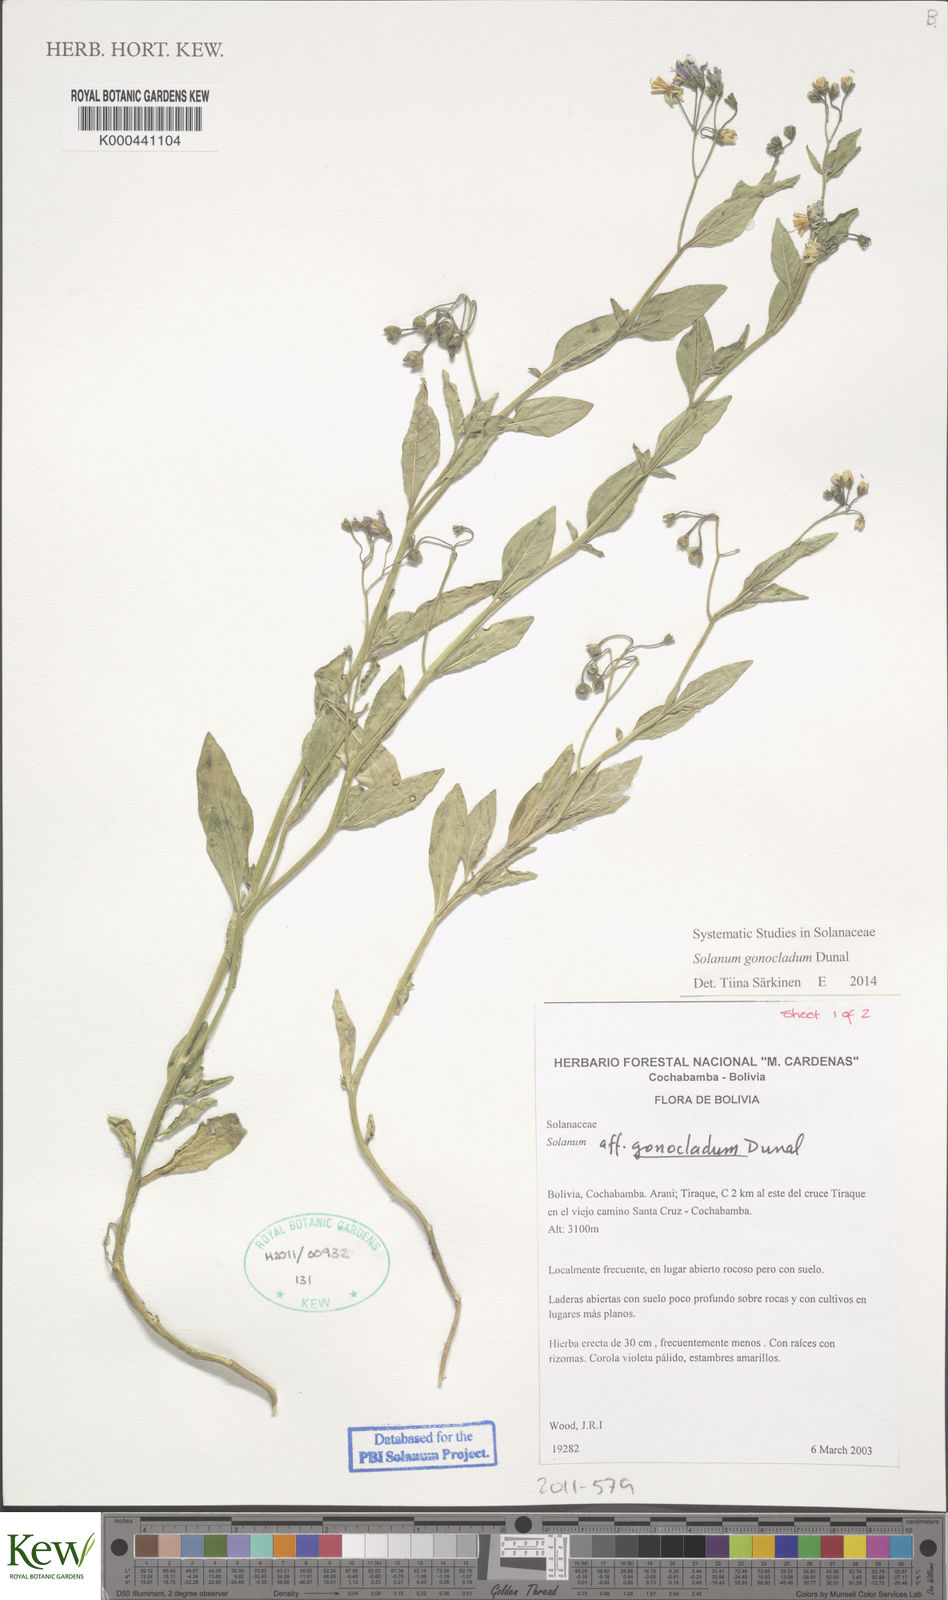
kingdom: Plantae
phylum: Tracheophyta
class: Magnoliopsida
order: Solanales
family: Solanaceae
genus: Solanum
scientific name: Solanum gonocladum
